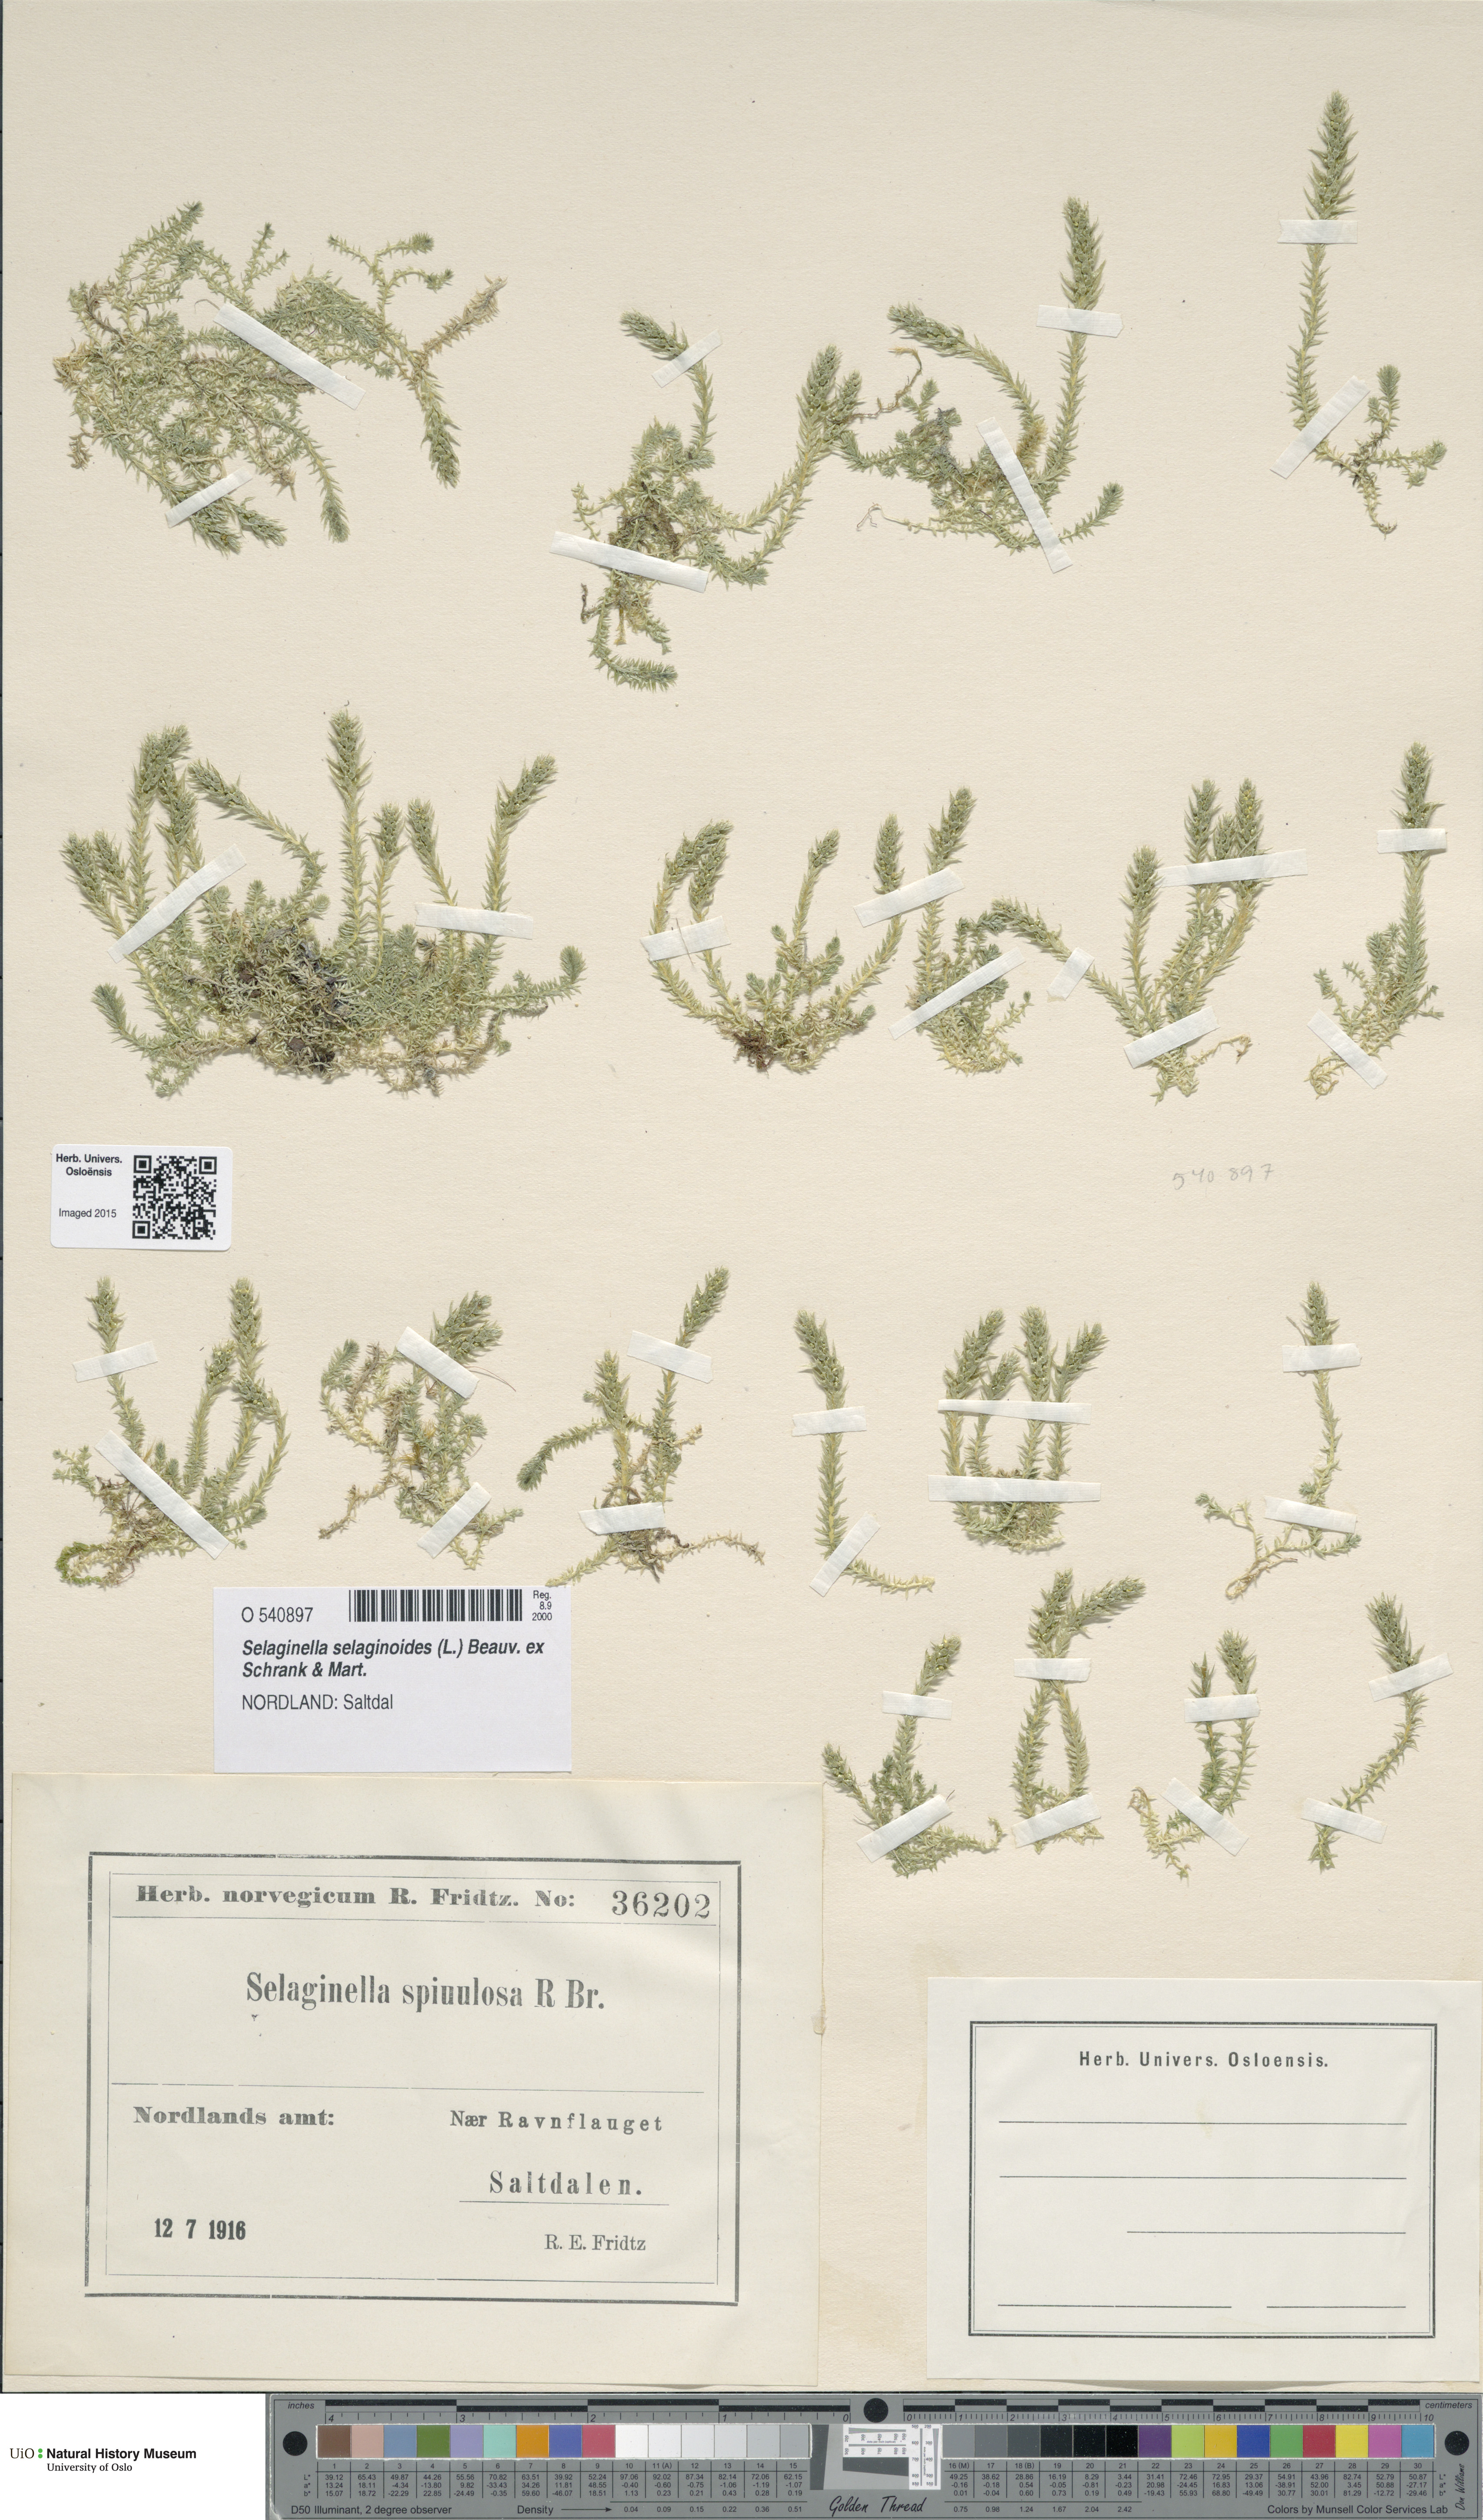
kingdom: Plantae
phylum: Tracheophyta
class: Lycopodiopsida
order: Selaginellales
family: Selaginellaceae
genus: Selaginella
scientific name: Selaginella selaginoides
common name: Prickly mountain-moss
